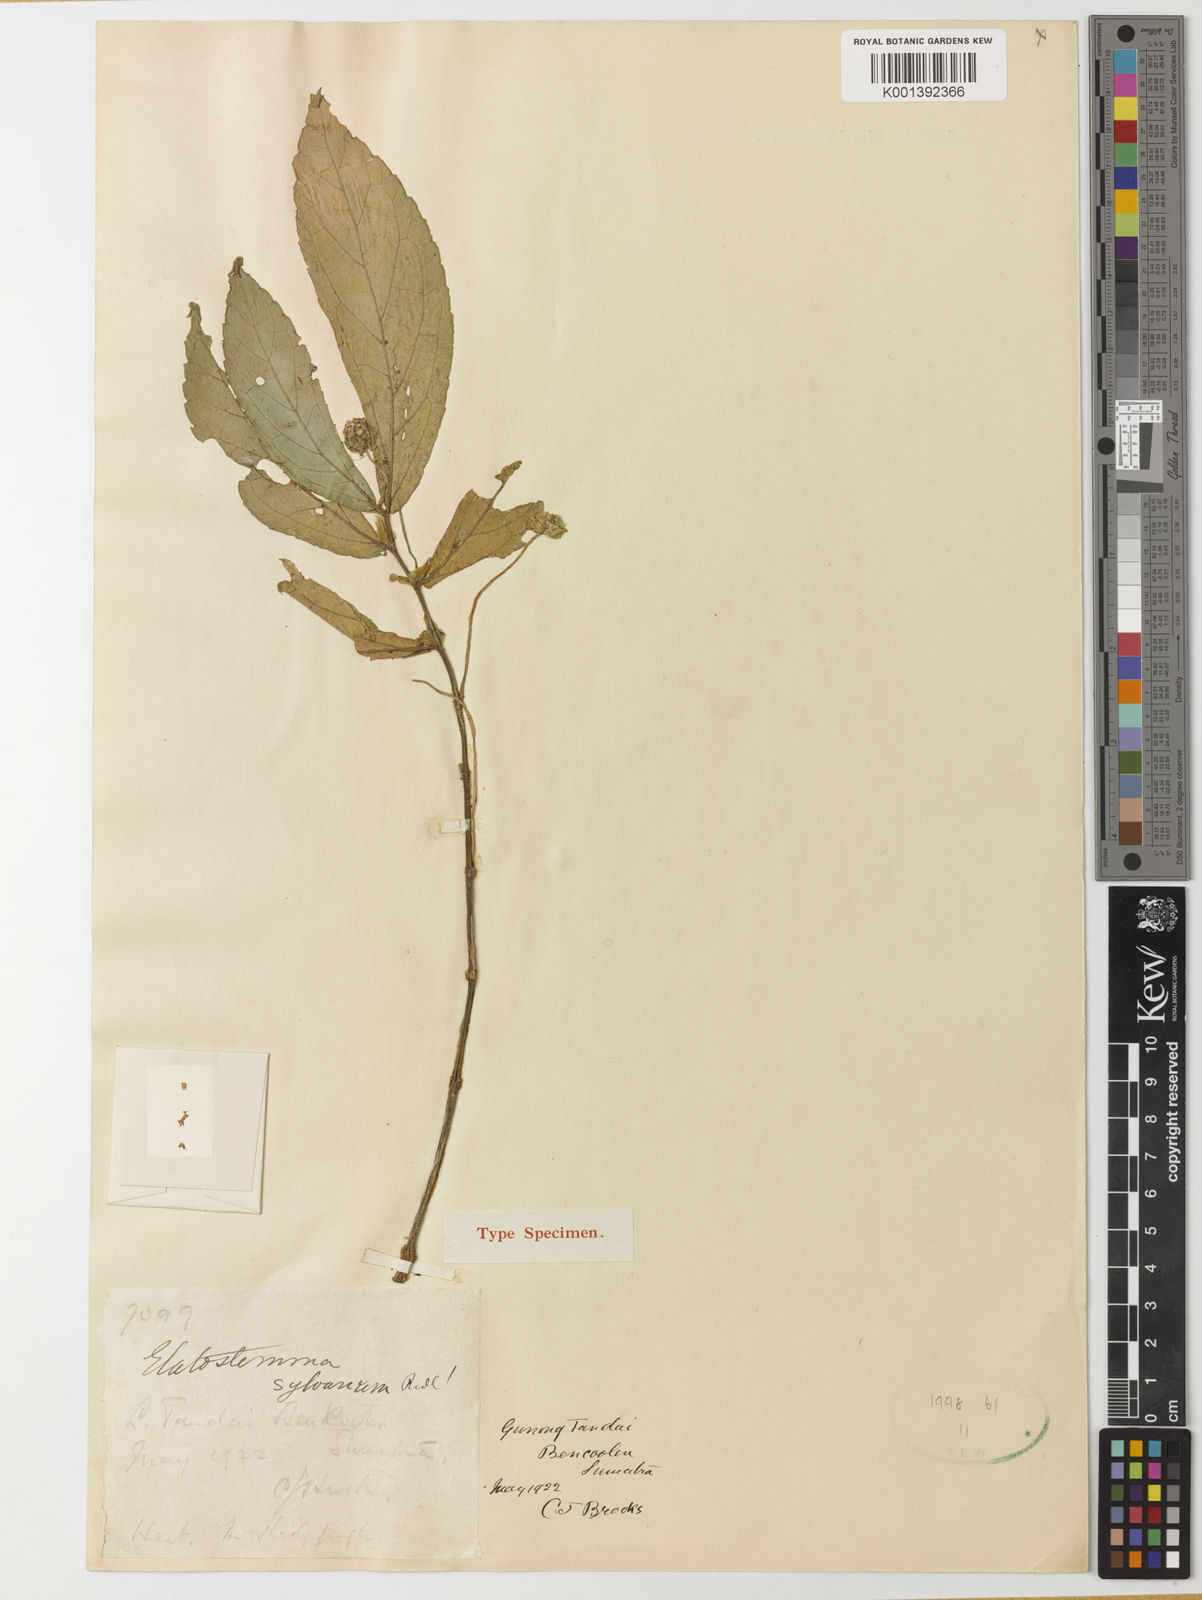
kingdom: Plantae
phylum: Tracheophyta
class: Magnoliopsida
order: Rosales
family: Urticaceae
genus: Elatostema
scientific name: Elatostema sylvanum
